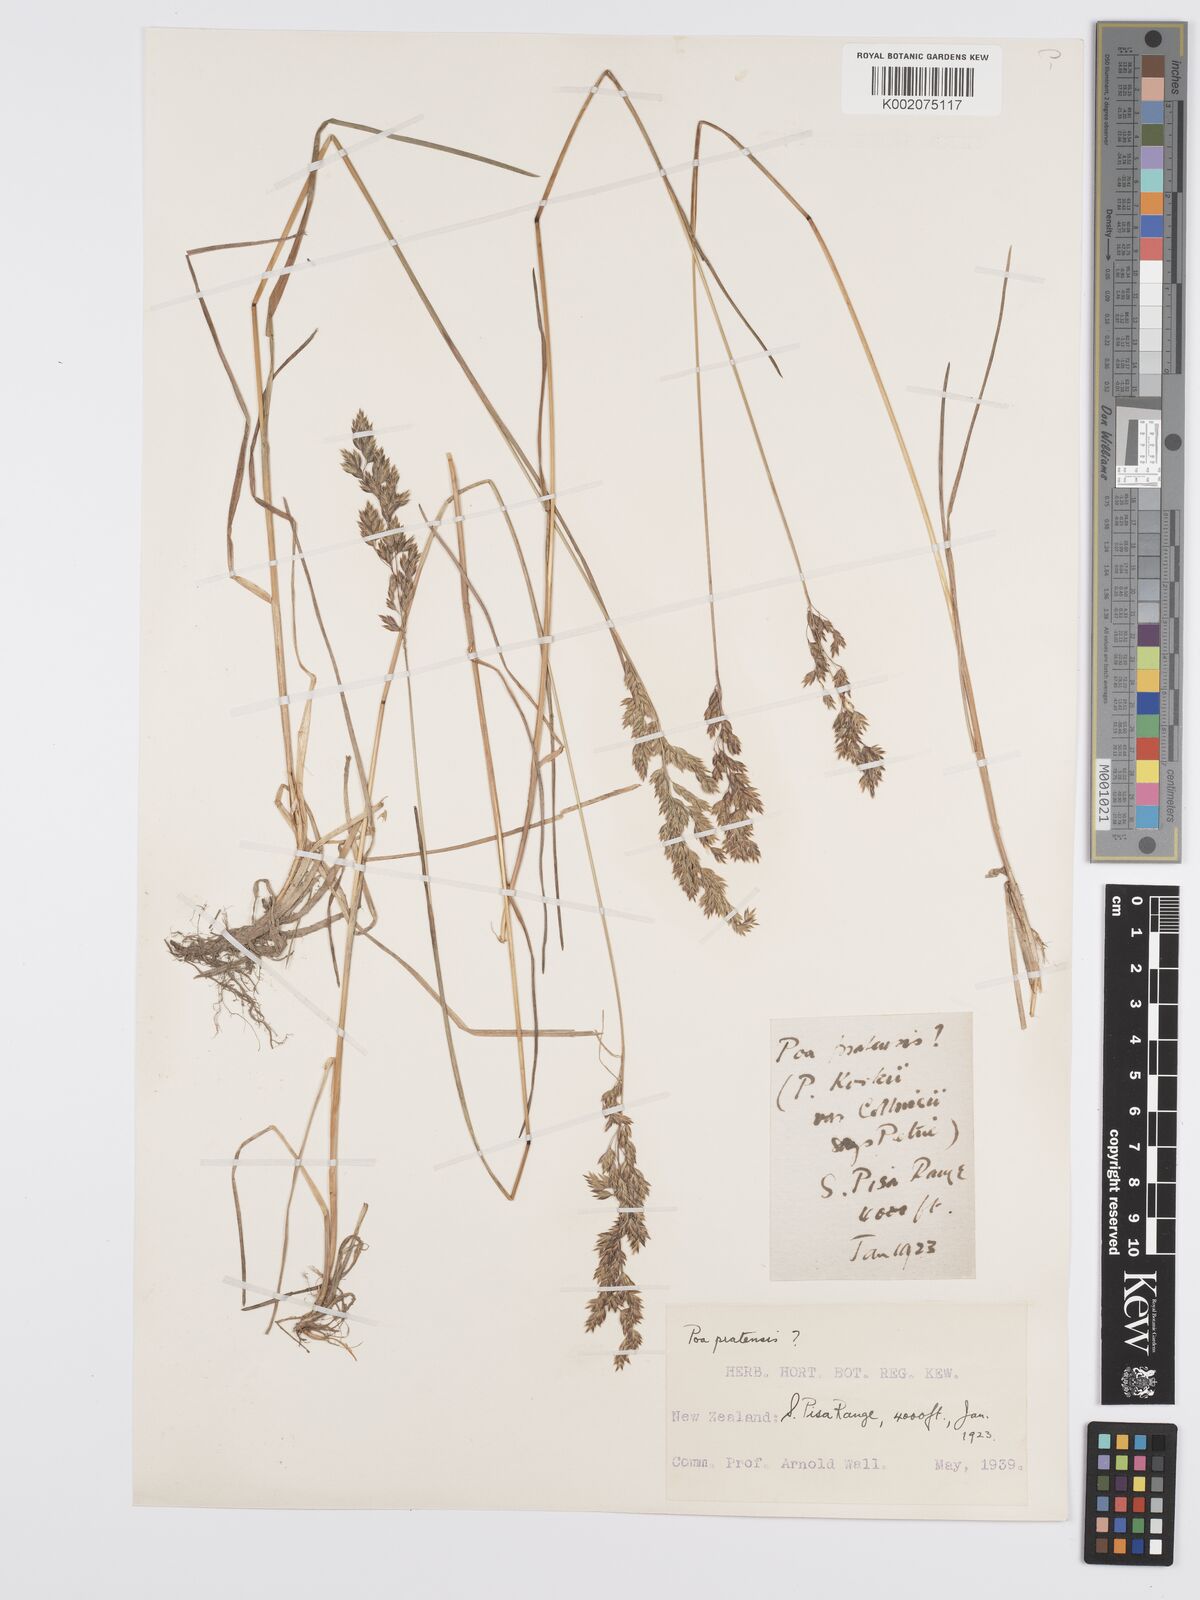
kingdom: Plantae
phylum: Tracheophyta
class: Liliopsida
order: Poales
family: Poaceae
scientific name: Poaceae
